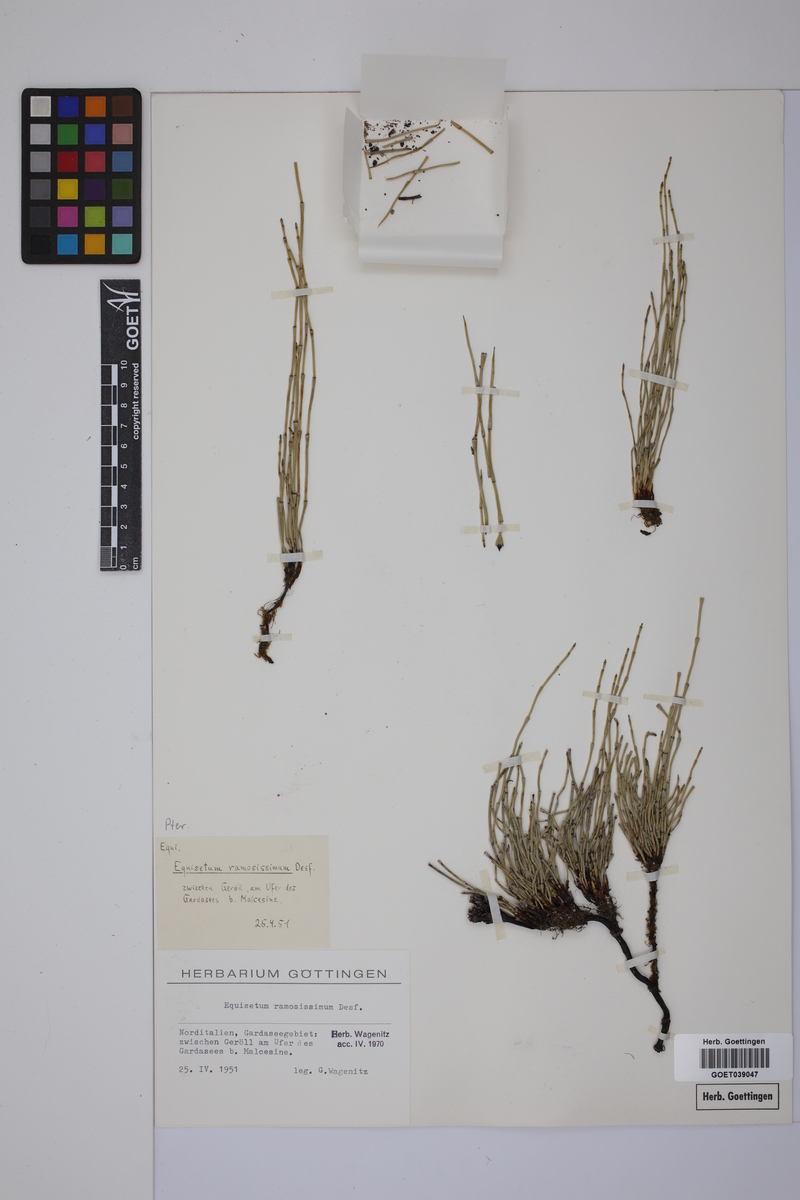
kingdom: Plantae
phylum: Tracheophyta
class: Polypodiopsida
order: Equisetales
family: Equisetaceae
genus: Equisetum
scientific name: Equisetum giganteum
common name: Giant horsetail
